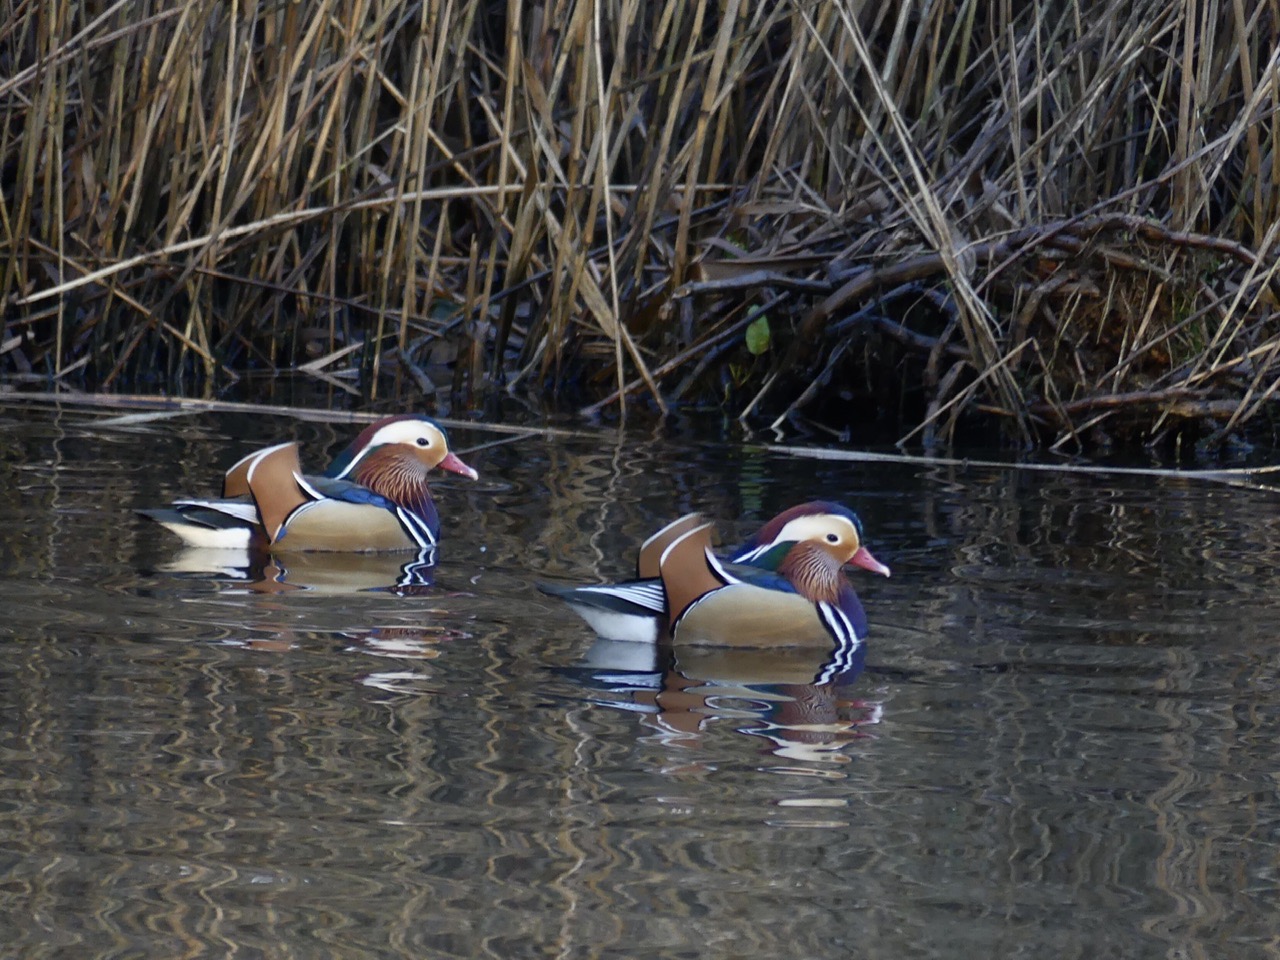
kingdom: Animalia
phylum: Chordata
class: Aves
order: Anseriformes
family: Anatidae
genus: Aix
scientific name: Aix galericulata
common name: Mandarinand
